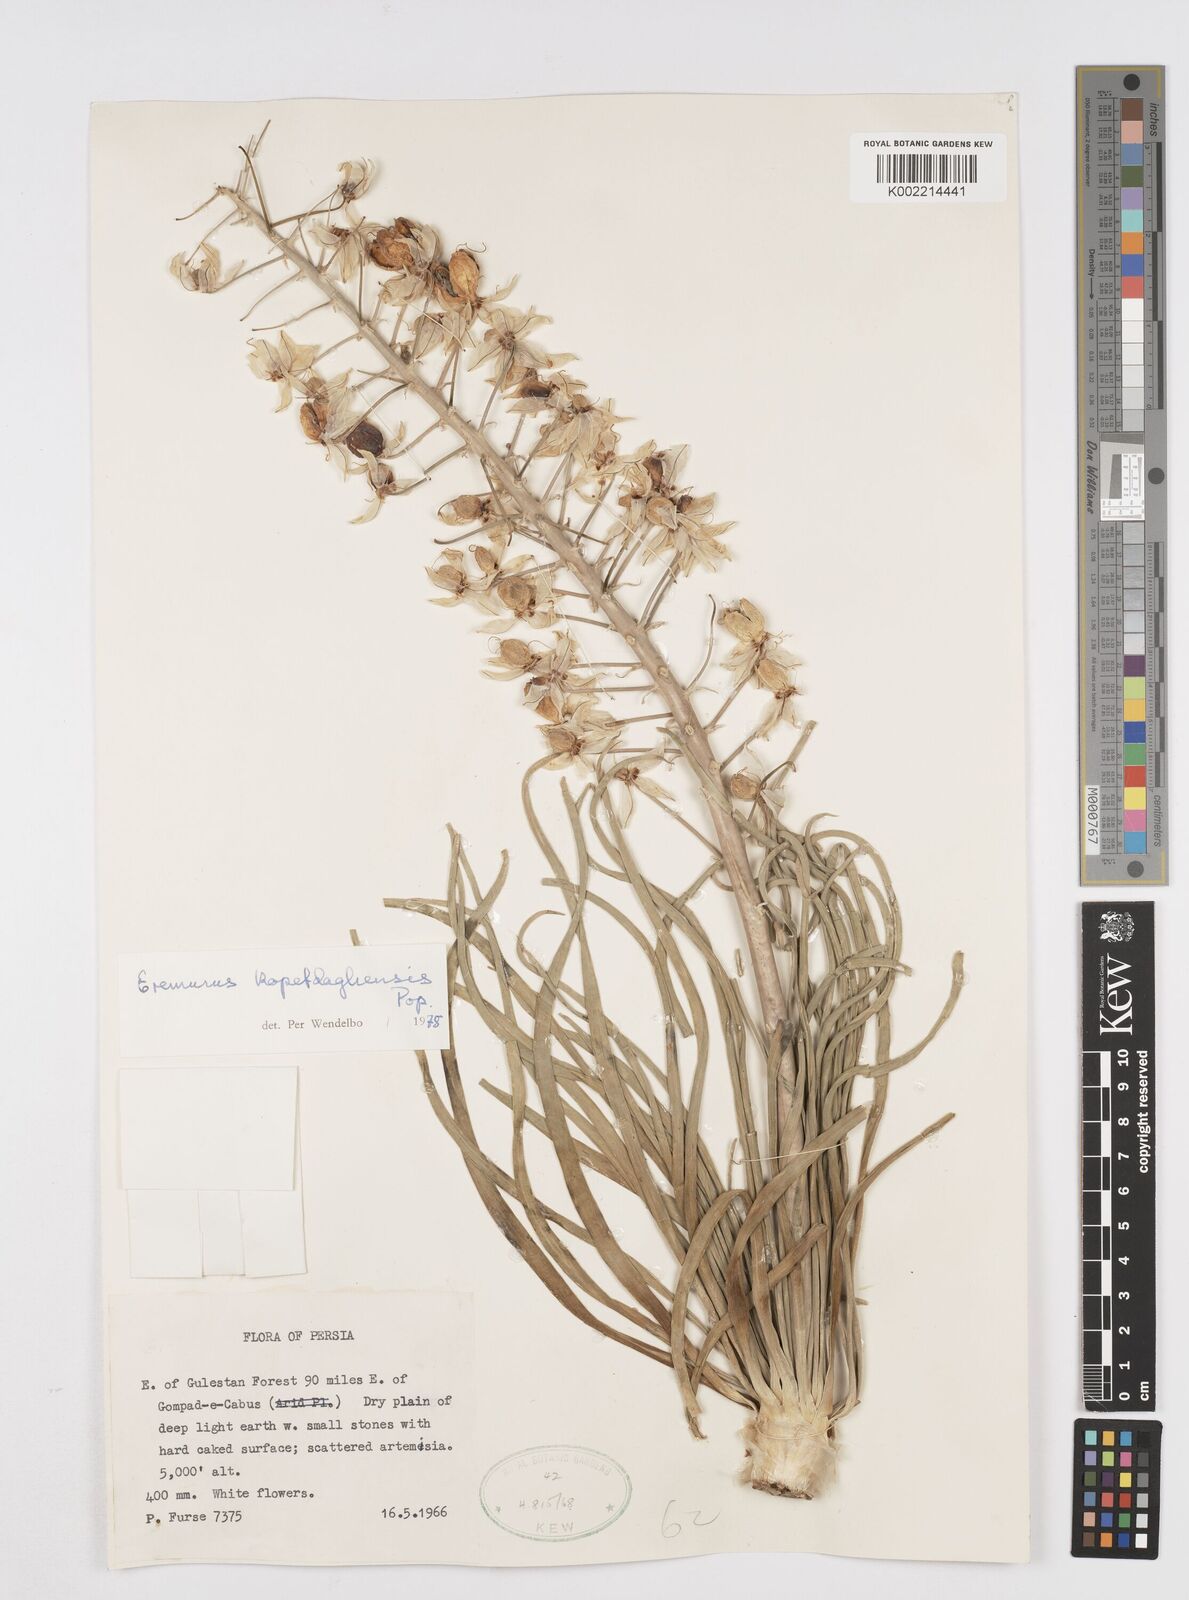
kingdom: Plantae
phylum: Tracheophyta
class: Liliopsida
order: Asparagales
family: Asphodelaceae
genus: Eremurus
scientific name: Eremurus kopet-daghensis
